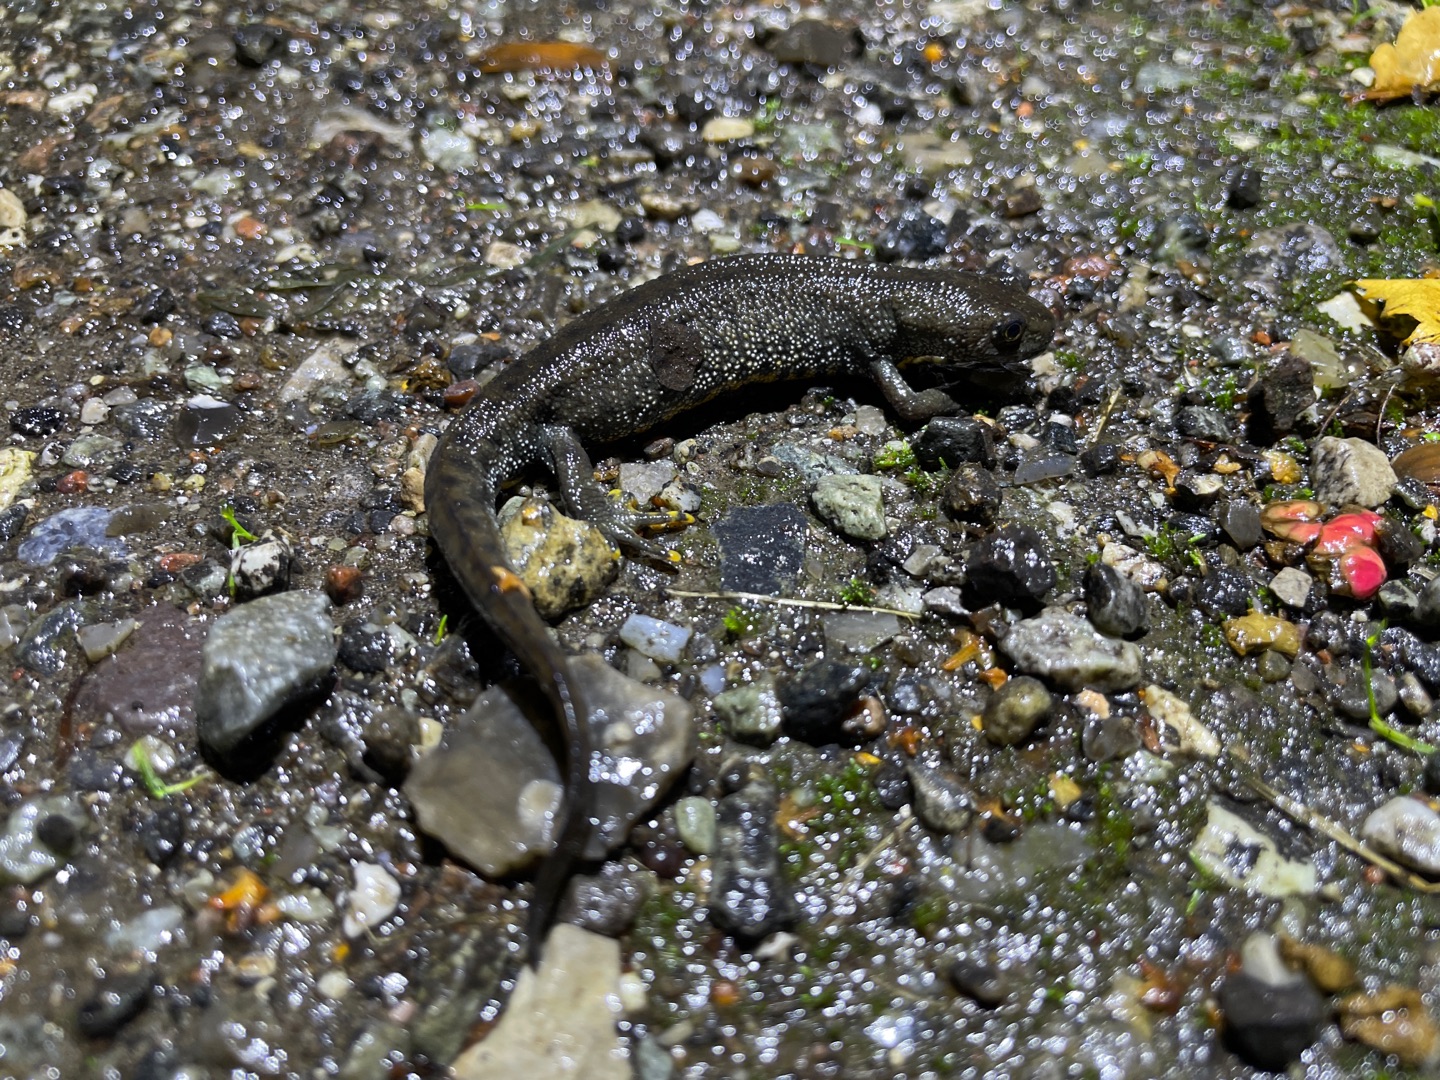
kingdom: Animalia
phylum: Chordata
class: Amphibia
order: Caudata
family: Salamandridae
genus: Triturus
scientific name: Triturus cristatus
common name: Stor vandsalamander
